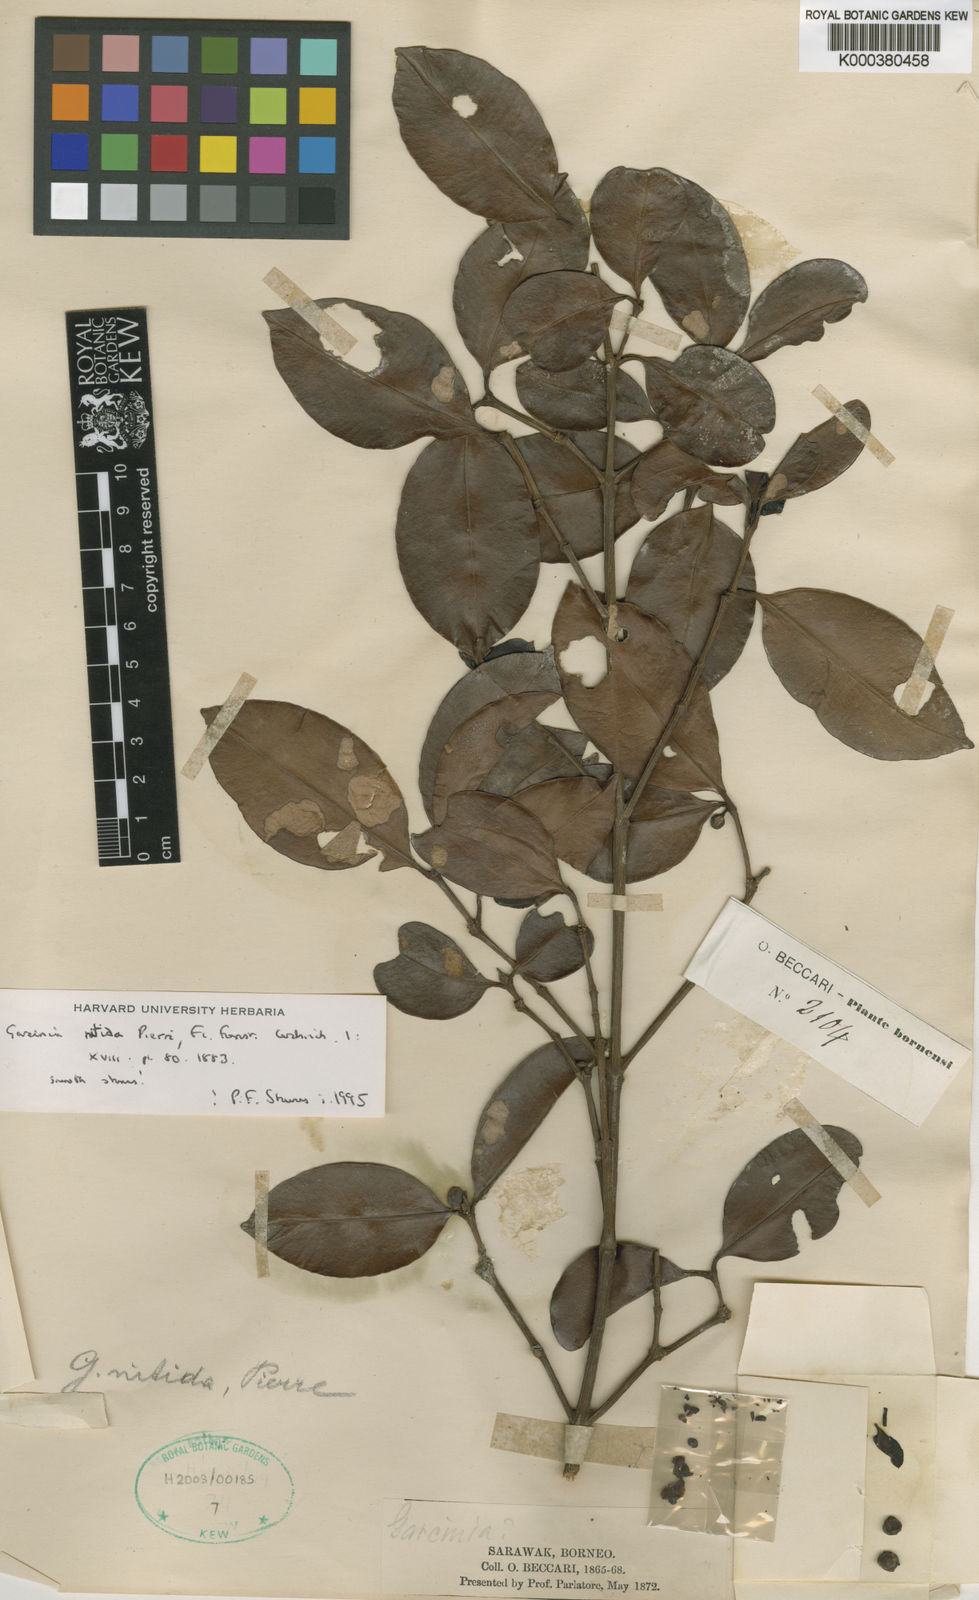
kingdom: Plantae
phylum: Tracheophyta
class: Magnoliopsida
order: Malpighiales
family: Clusiaceae
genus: Garcinia
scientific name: Garcinia nitida
